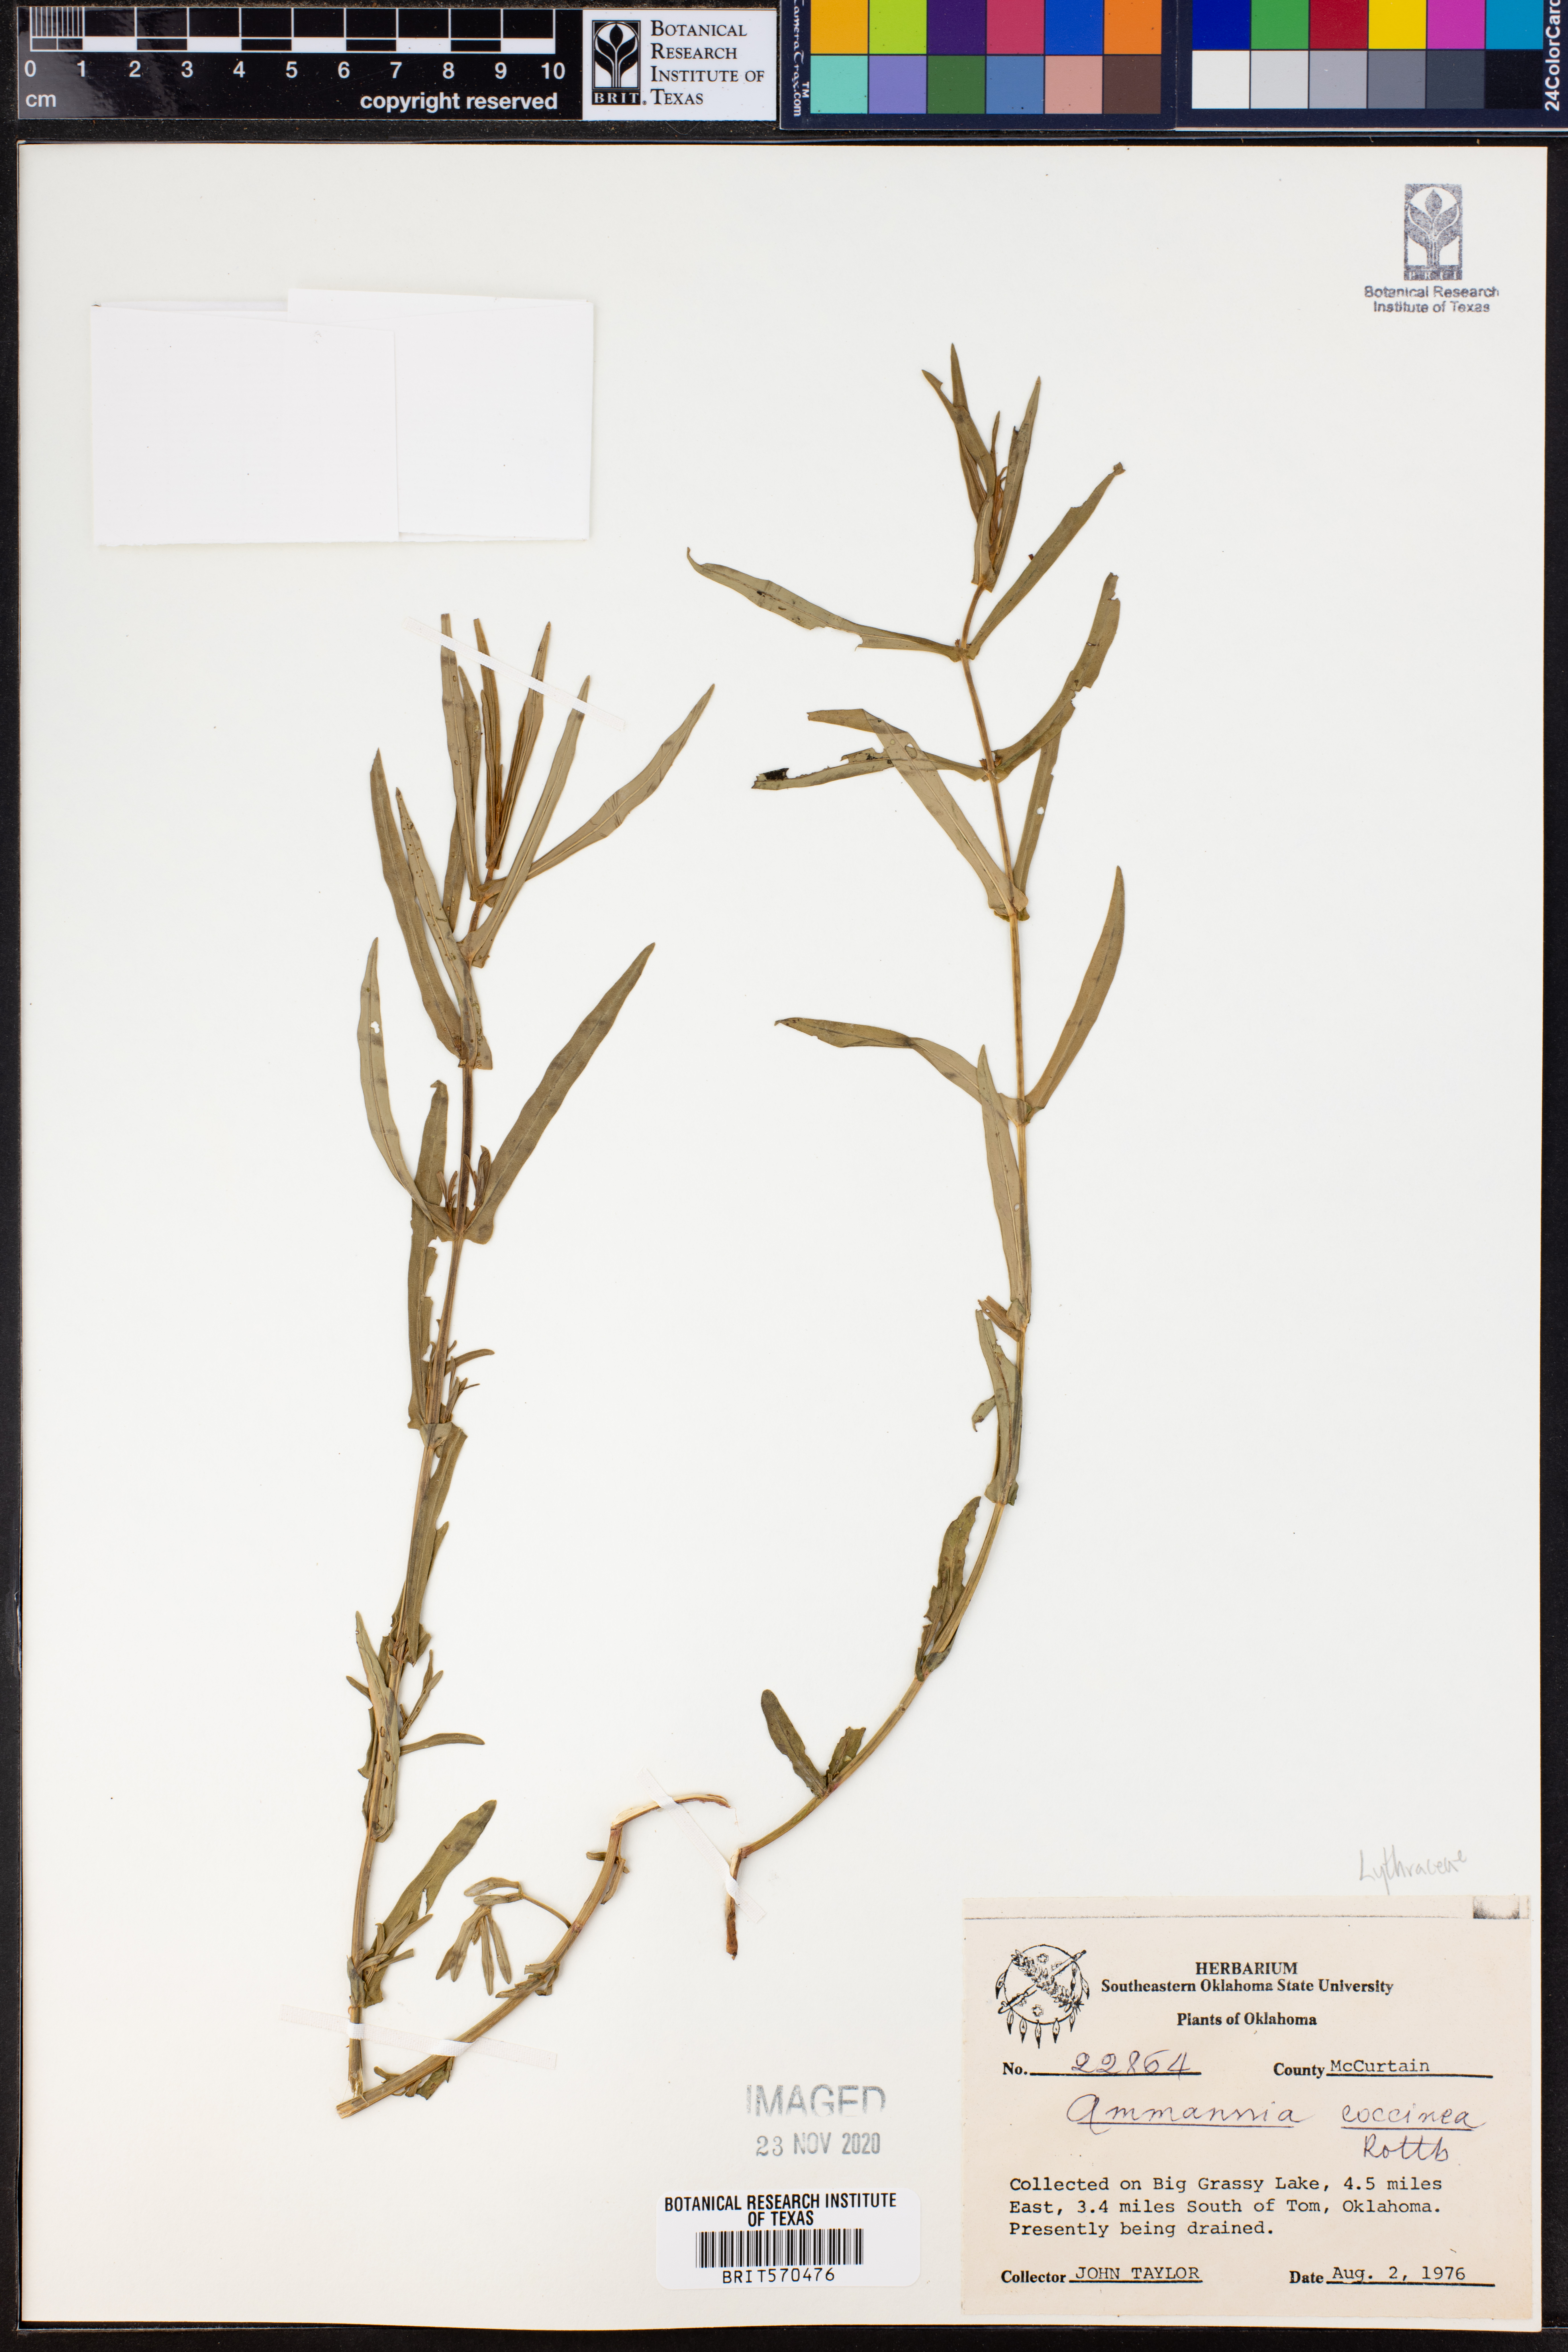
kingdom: Plantae
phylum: Tracheophyta
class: Magnoliopsida
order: Myrtales
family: Lythraceae
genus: Ammannia
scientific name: Ammannia coccinea
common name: Valley redstem
